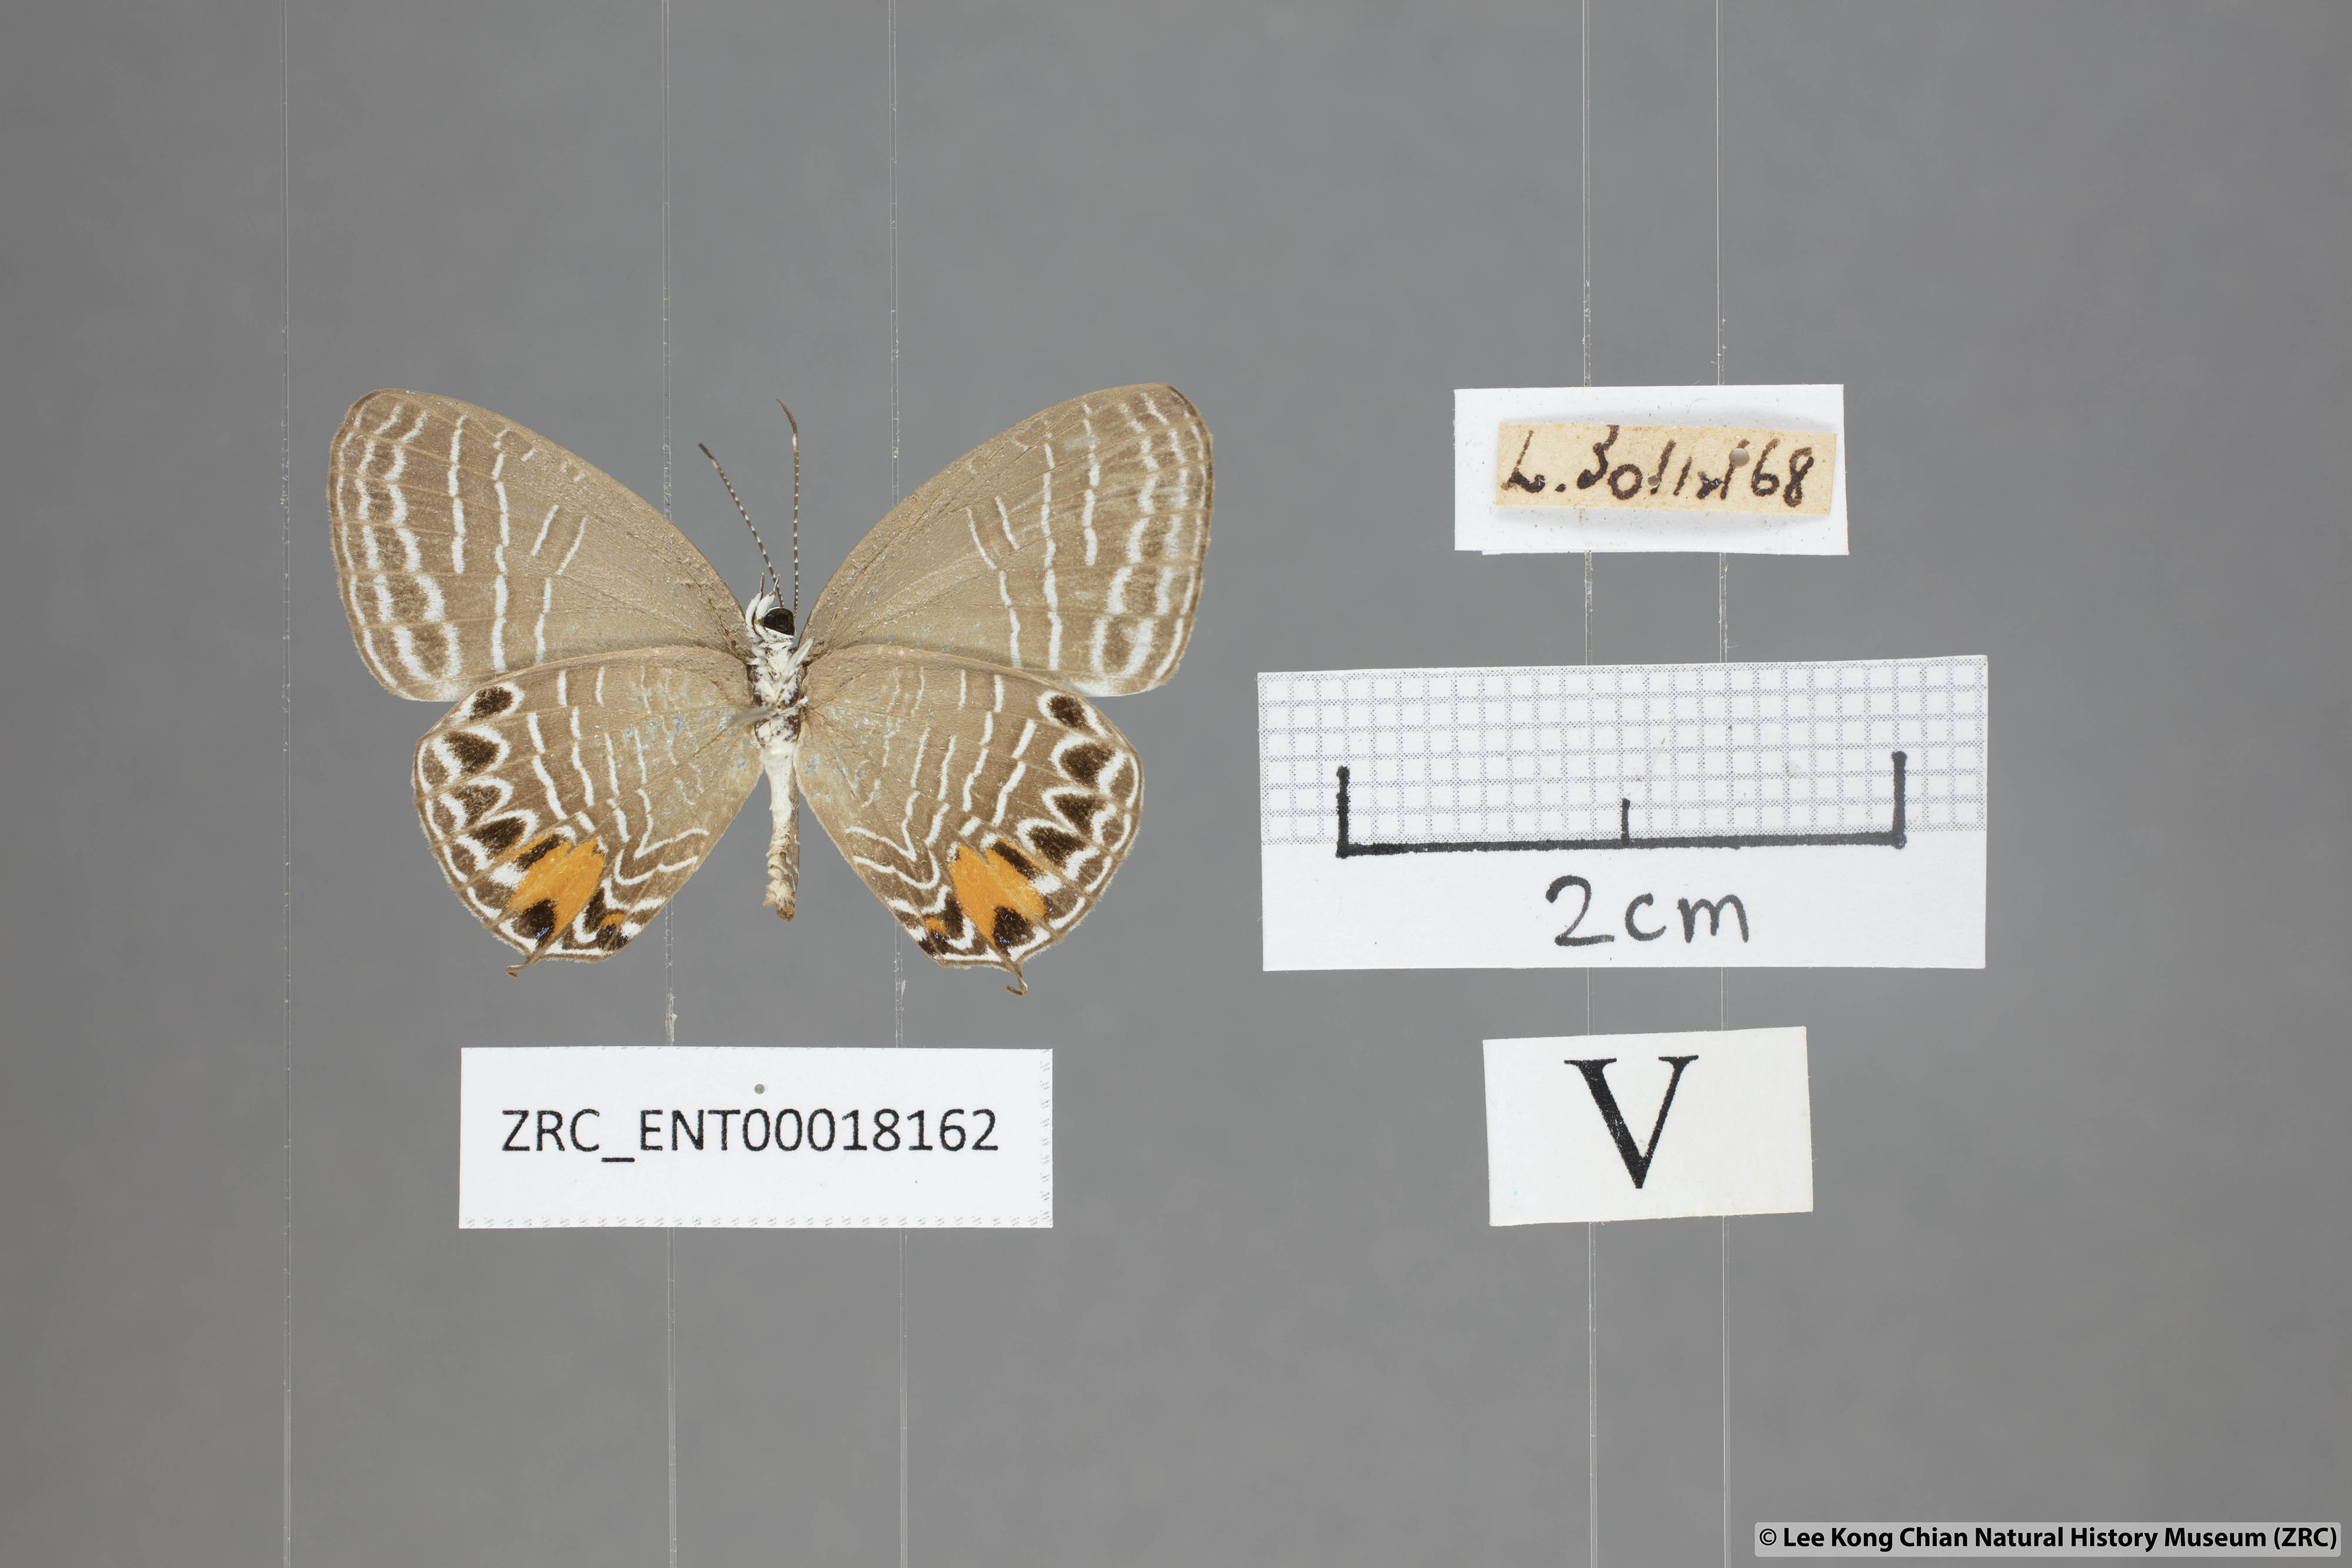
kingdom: Animalia
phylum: Arthropoda
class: Insecta
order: Lepidoptera
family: Lycaenidae
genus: Jamides
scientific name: Jamides
